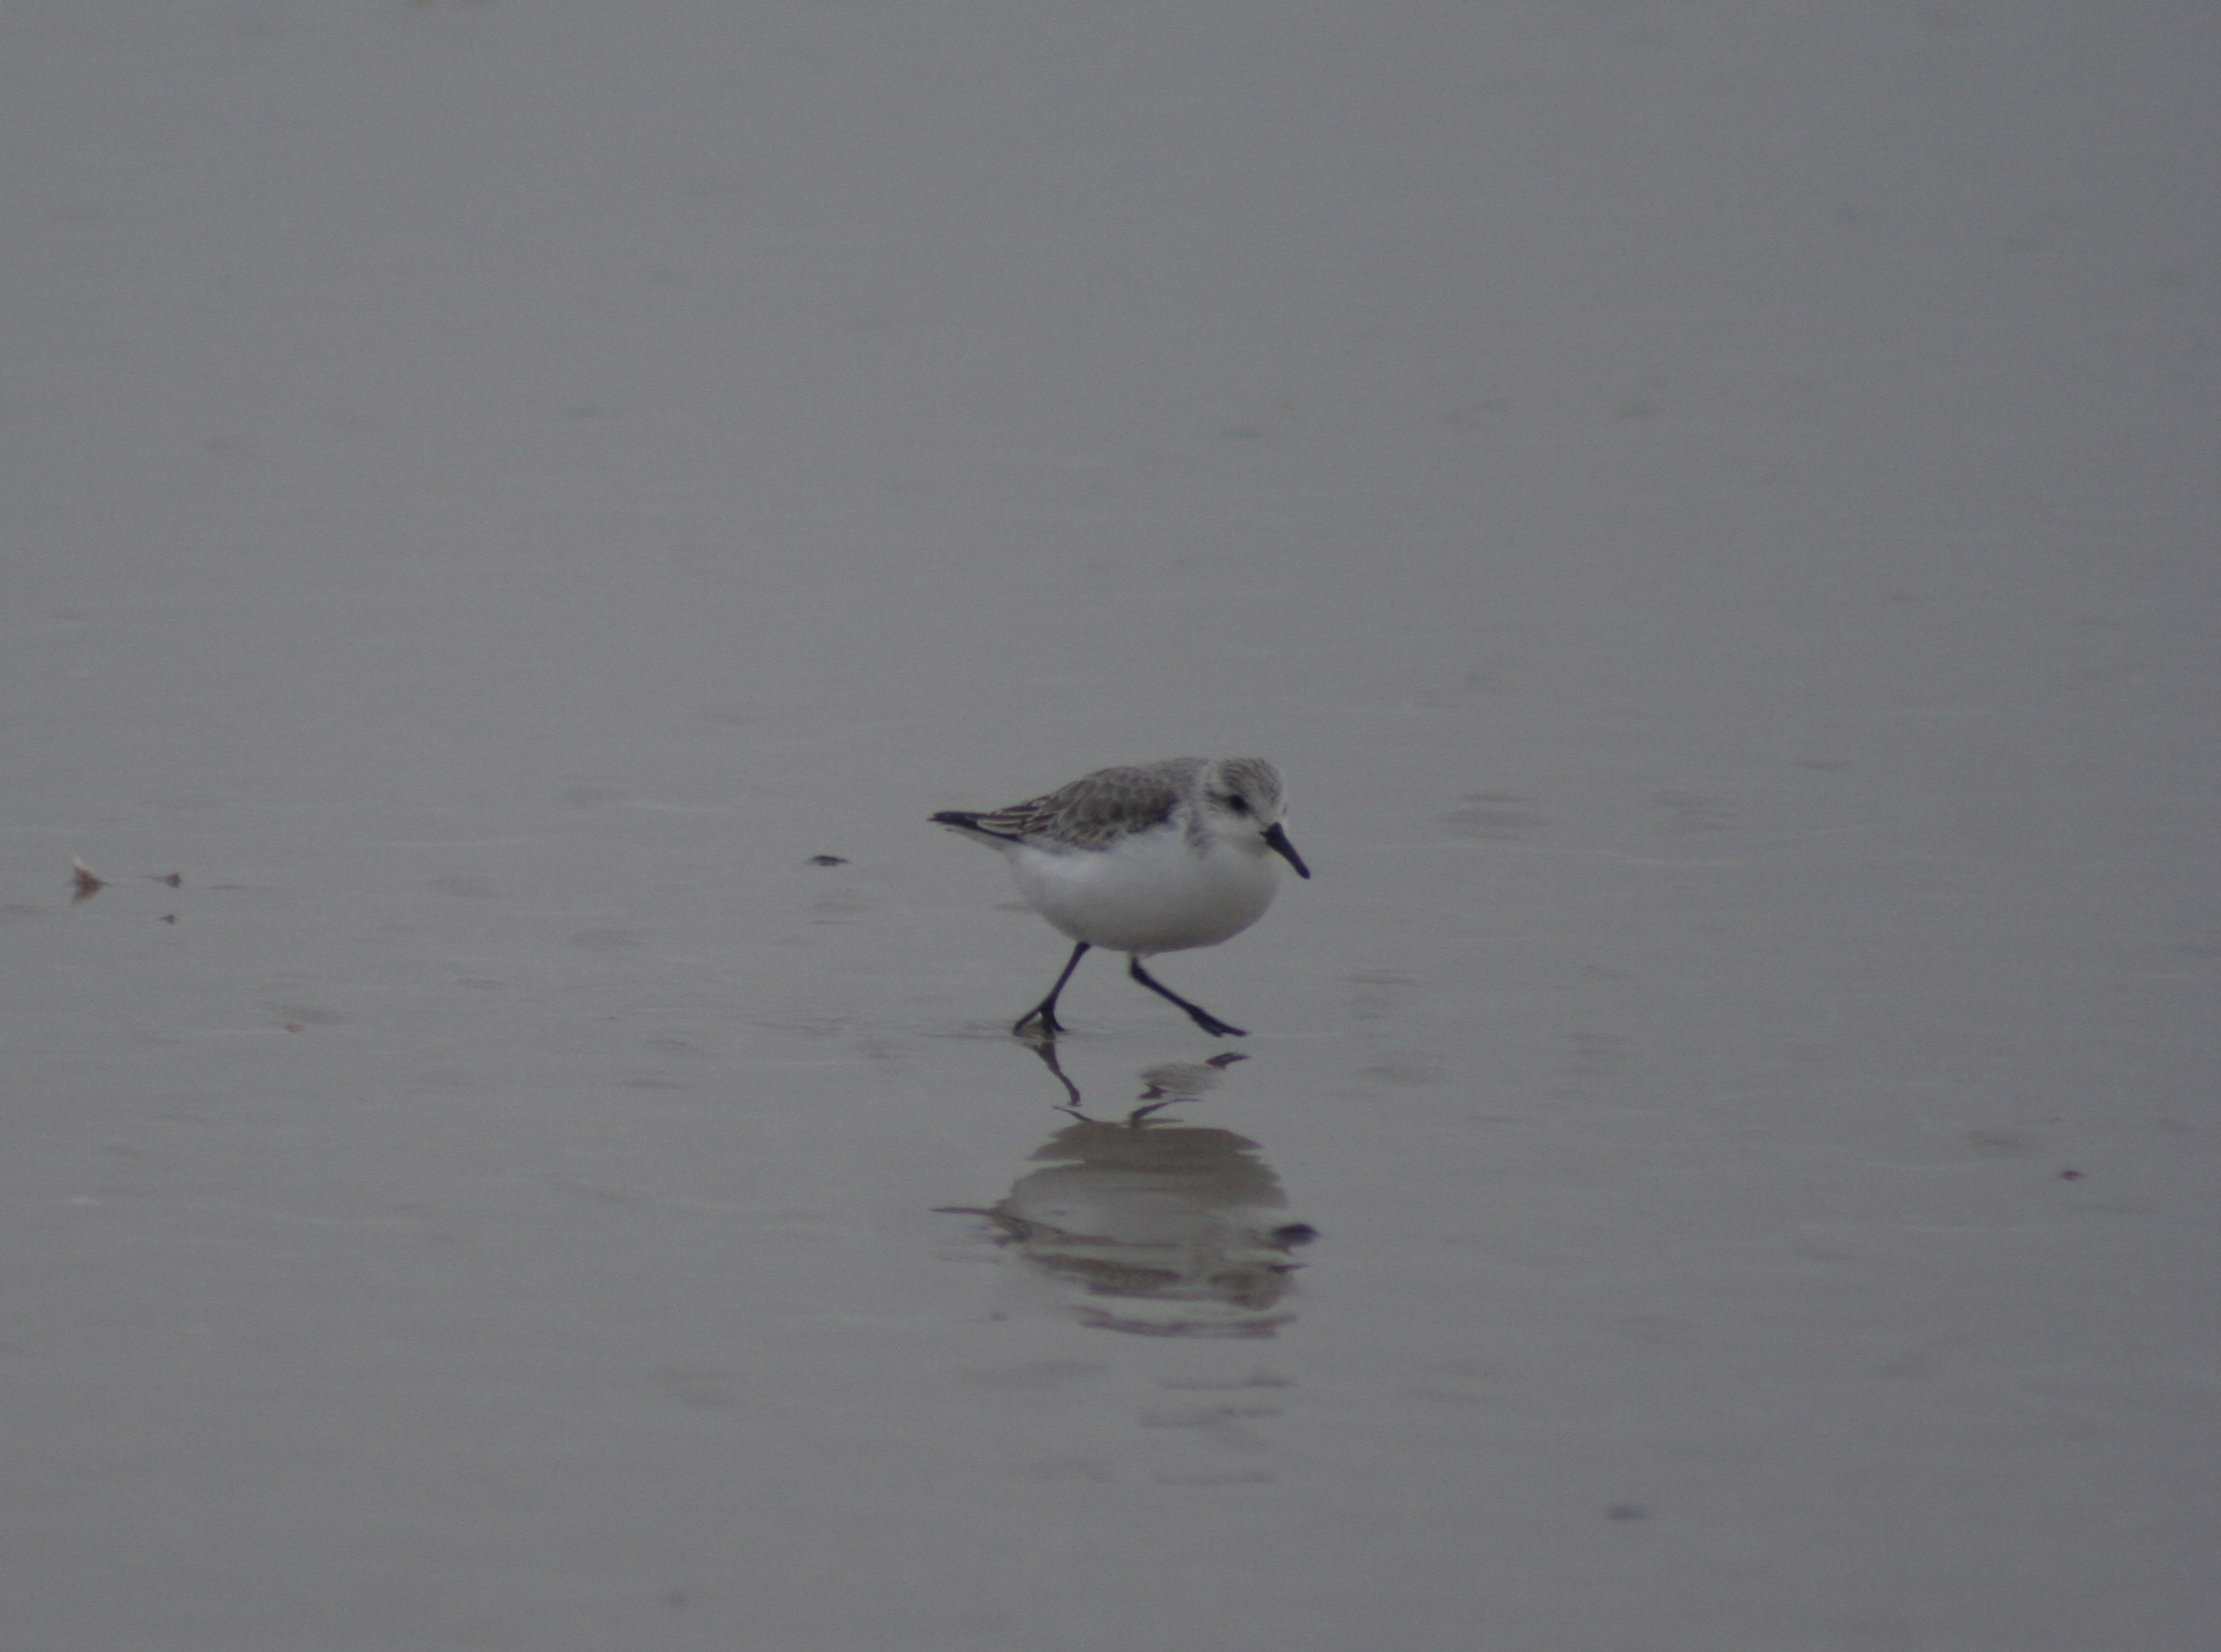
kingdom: Animalia
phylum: Chordata
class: Aves
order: Charadriiformes
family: Scolopacidae
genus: Calidris
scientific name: Calidris alba
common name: Sandløber
